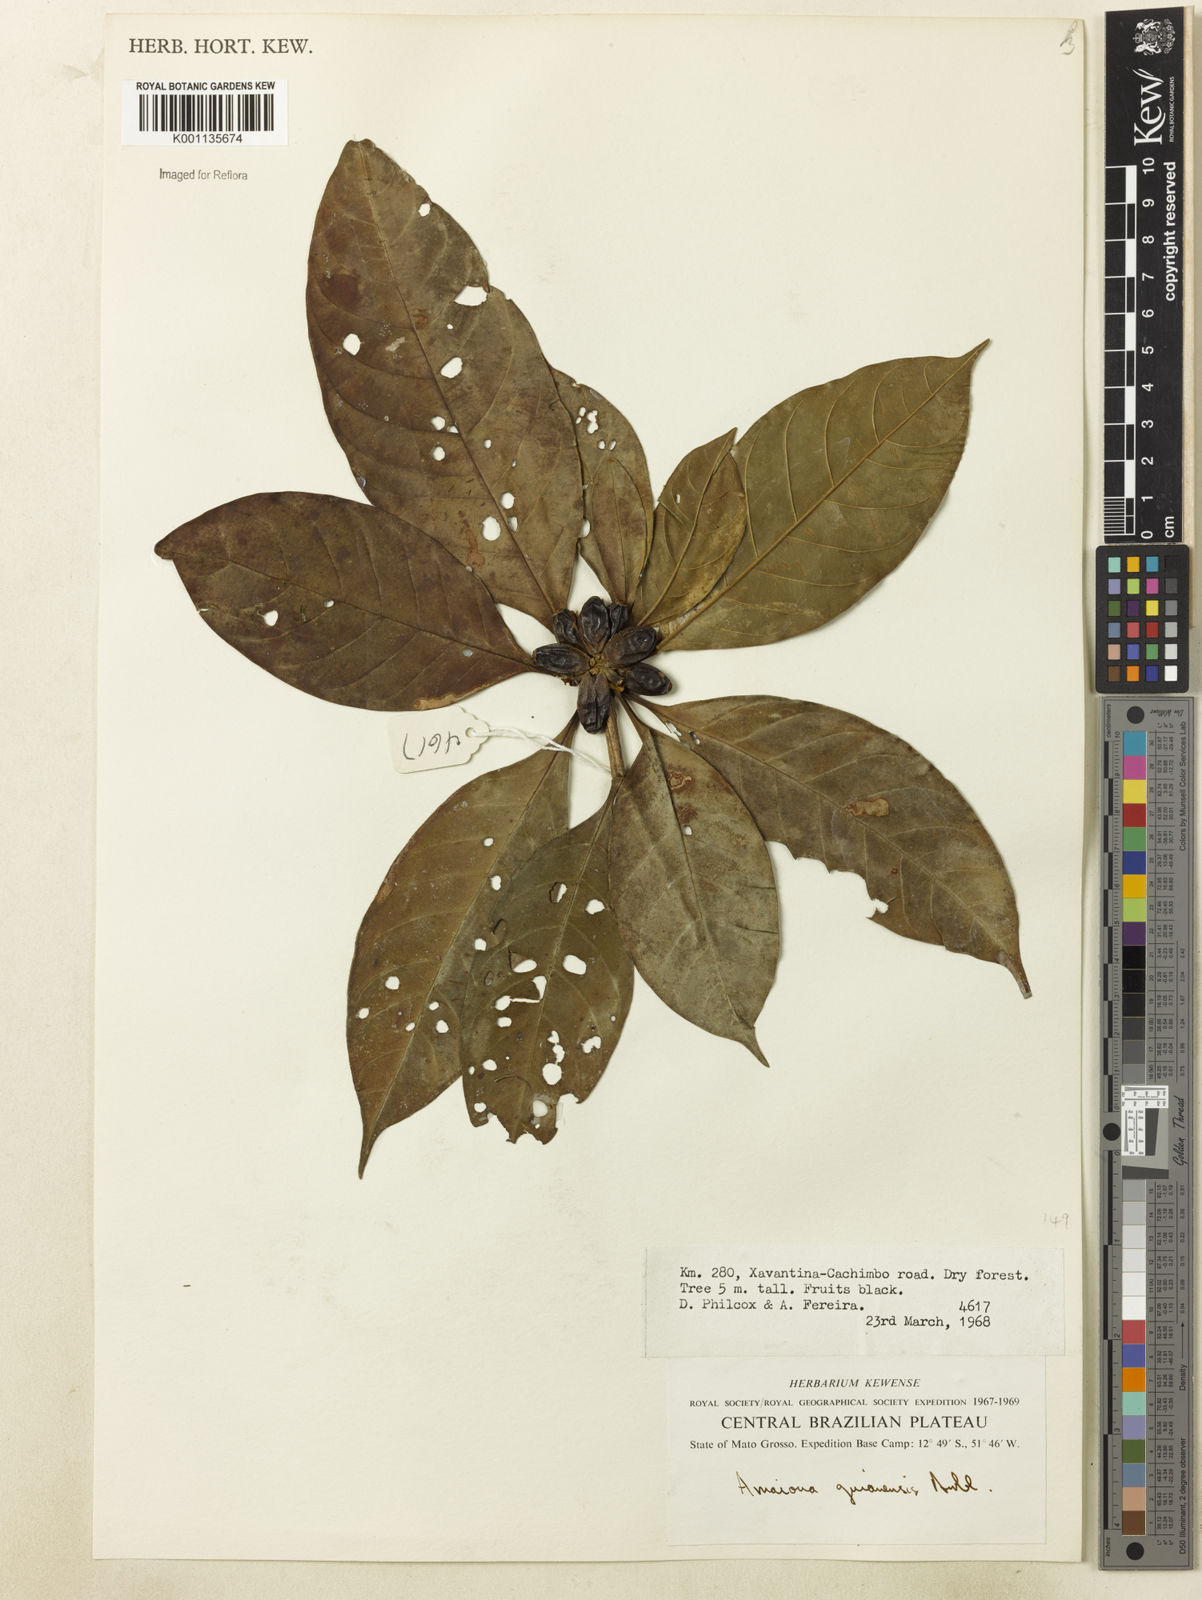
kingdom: Plantae
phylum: Tracheophyta
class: Magnoliopsida
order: Gentianales
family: Rubiaceae
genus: Amaioua
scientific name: Amaioua guianensis
